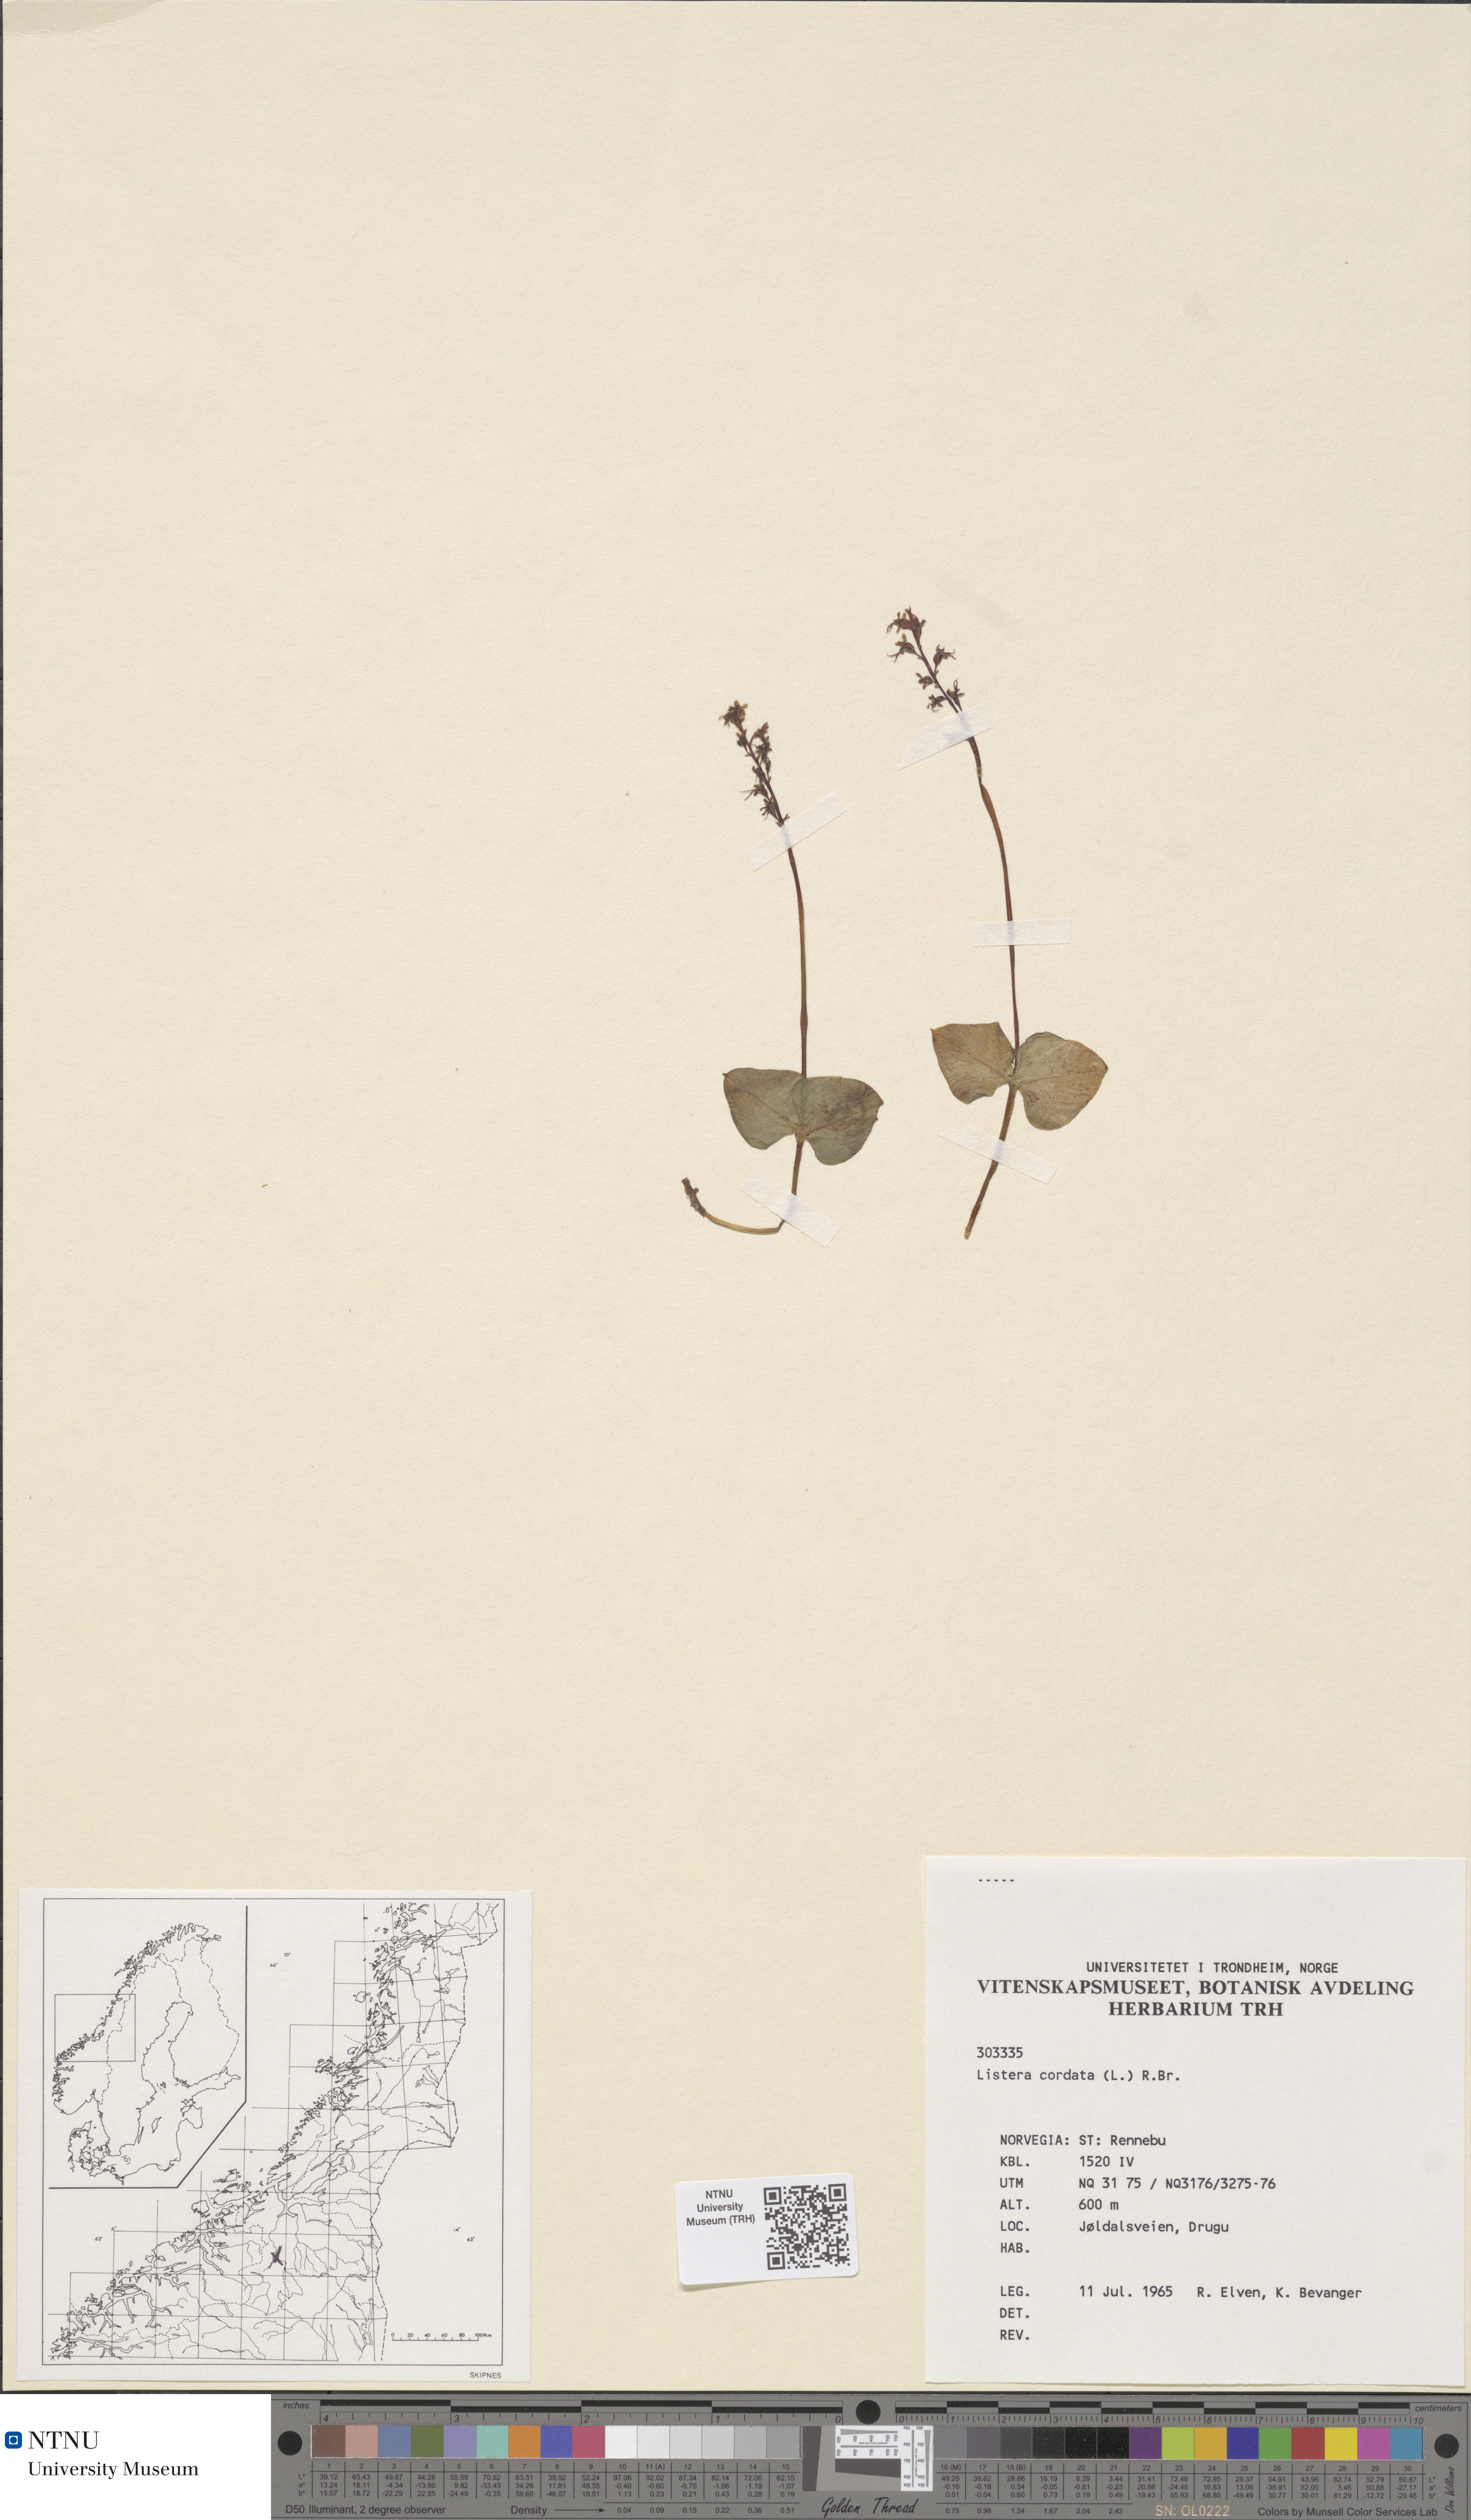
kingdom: Plantae
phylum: Tracheophyta
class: Liliopsida
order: Asparagales
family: Orchidaceae
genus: Neottia
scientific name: Neottia cordata
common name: Lesser twayblade
